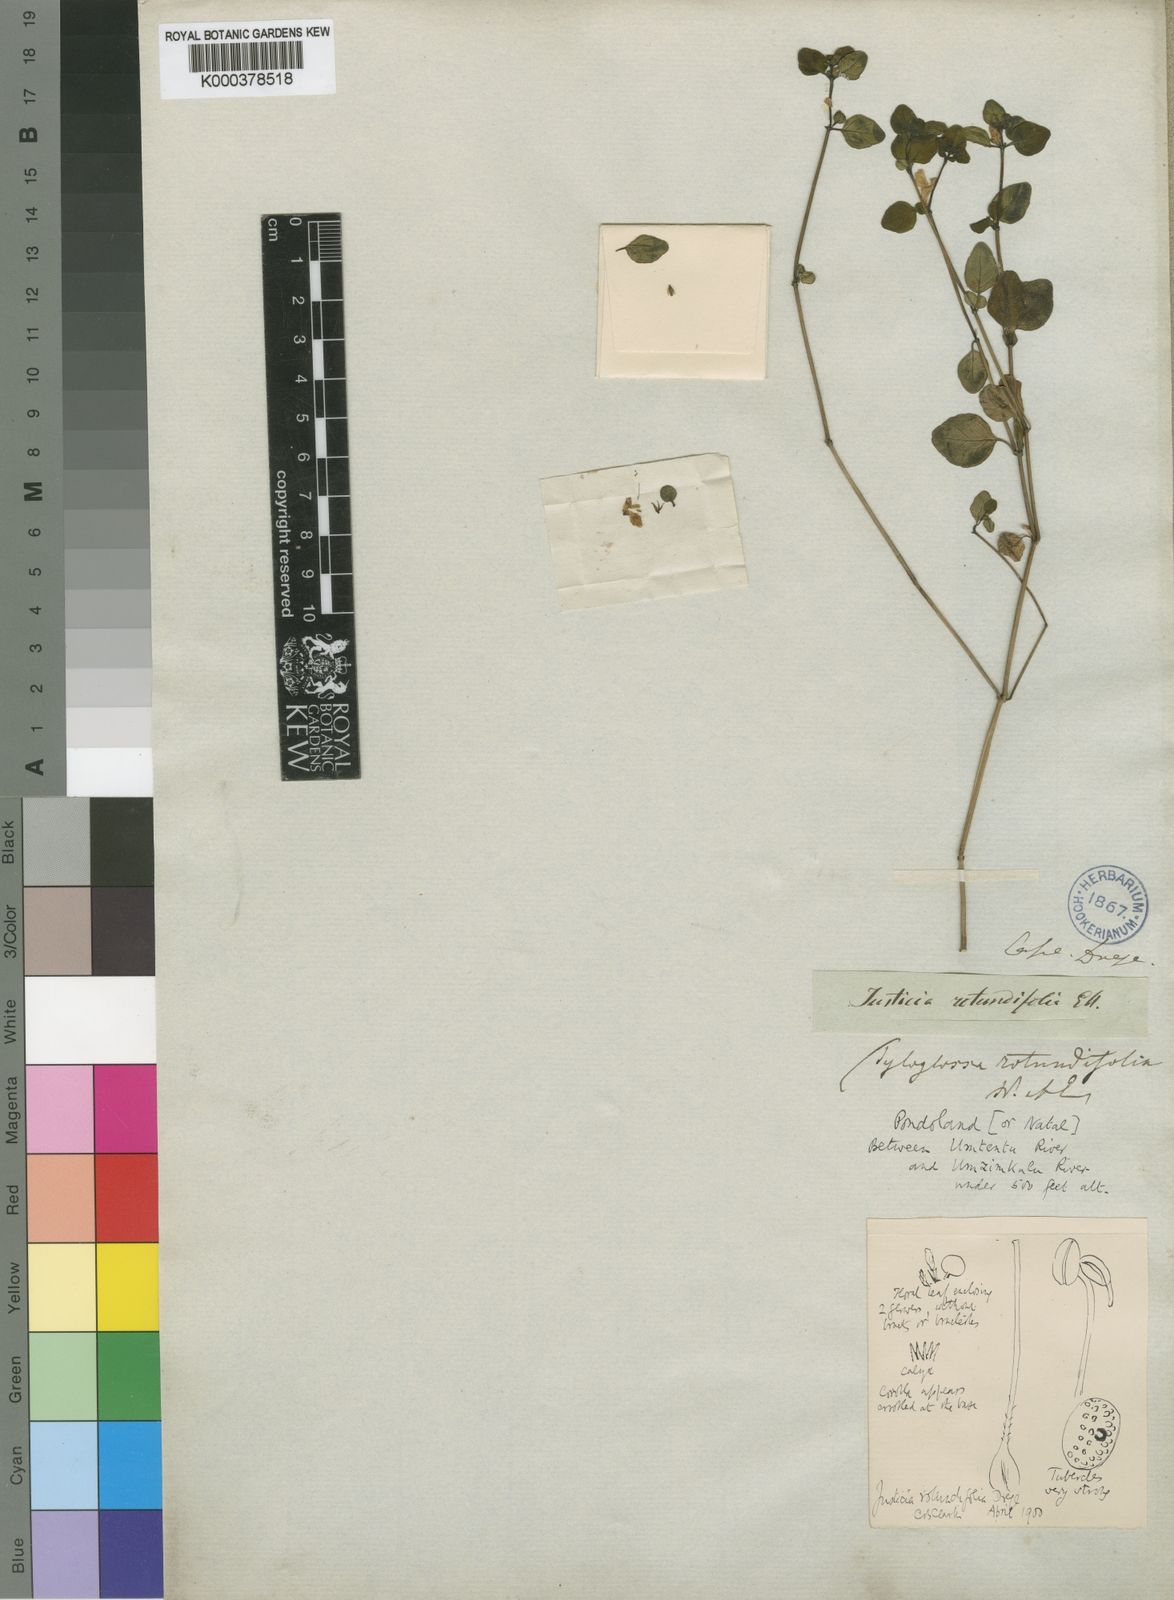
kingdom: Plantae
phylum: Tracheophyta
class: Magnoliopsida
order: Lamiales
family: Acanthaceae
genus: Justicia
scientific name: Justicia
